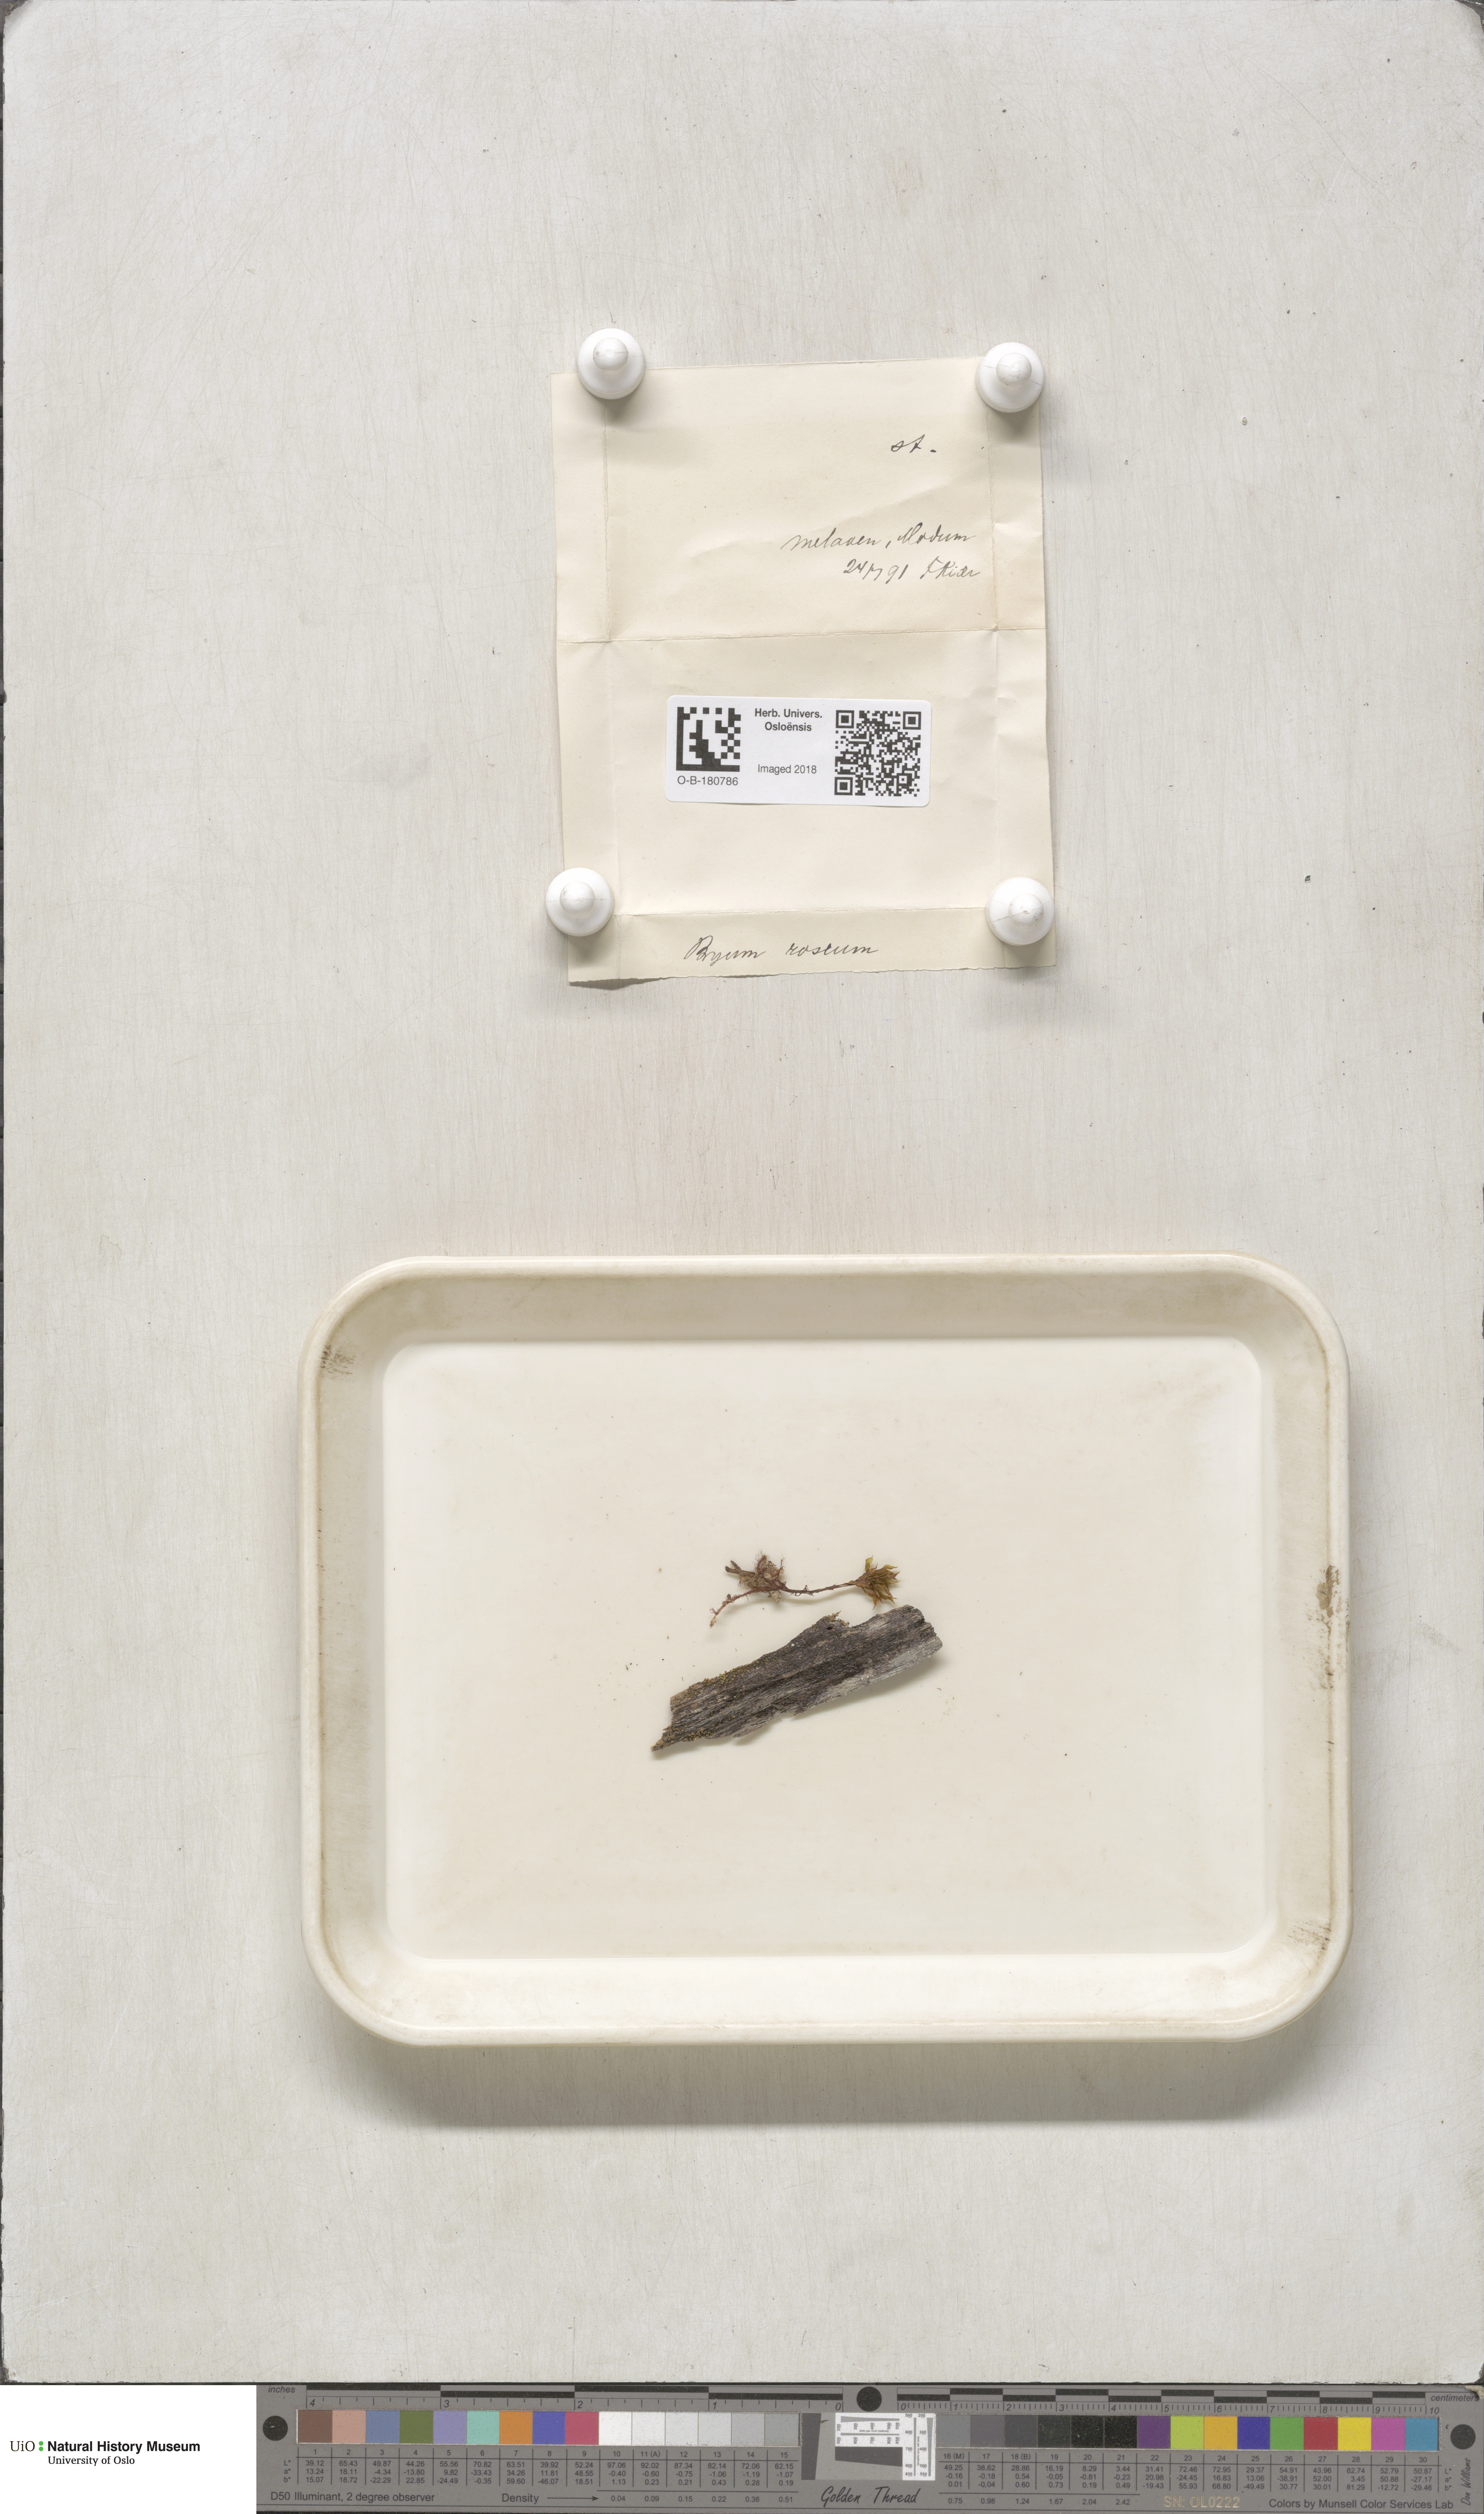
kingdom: Plantae
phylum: Bryophyta
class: Bryopsida
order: Bryales
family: Bryaceae
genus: Rhodobryum
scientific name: Rhodobryum roseum
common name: Rose-moss
